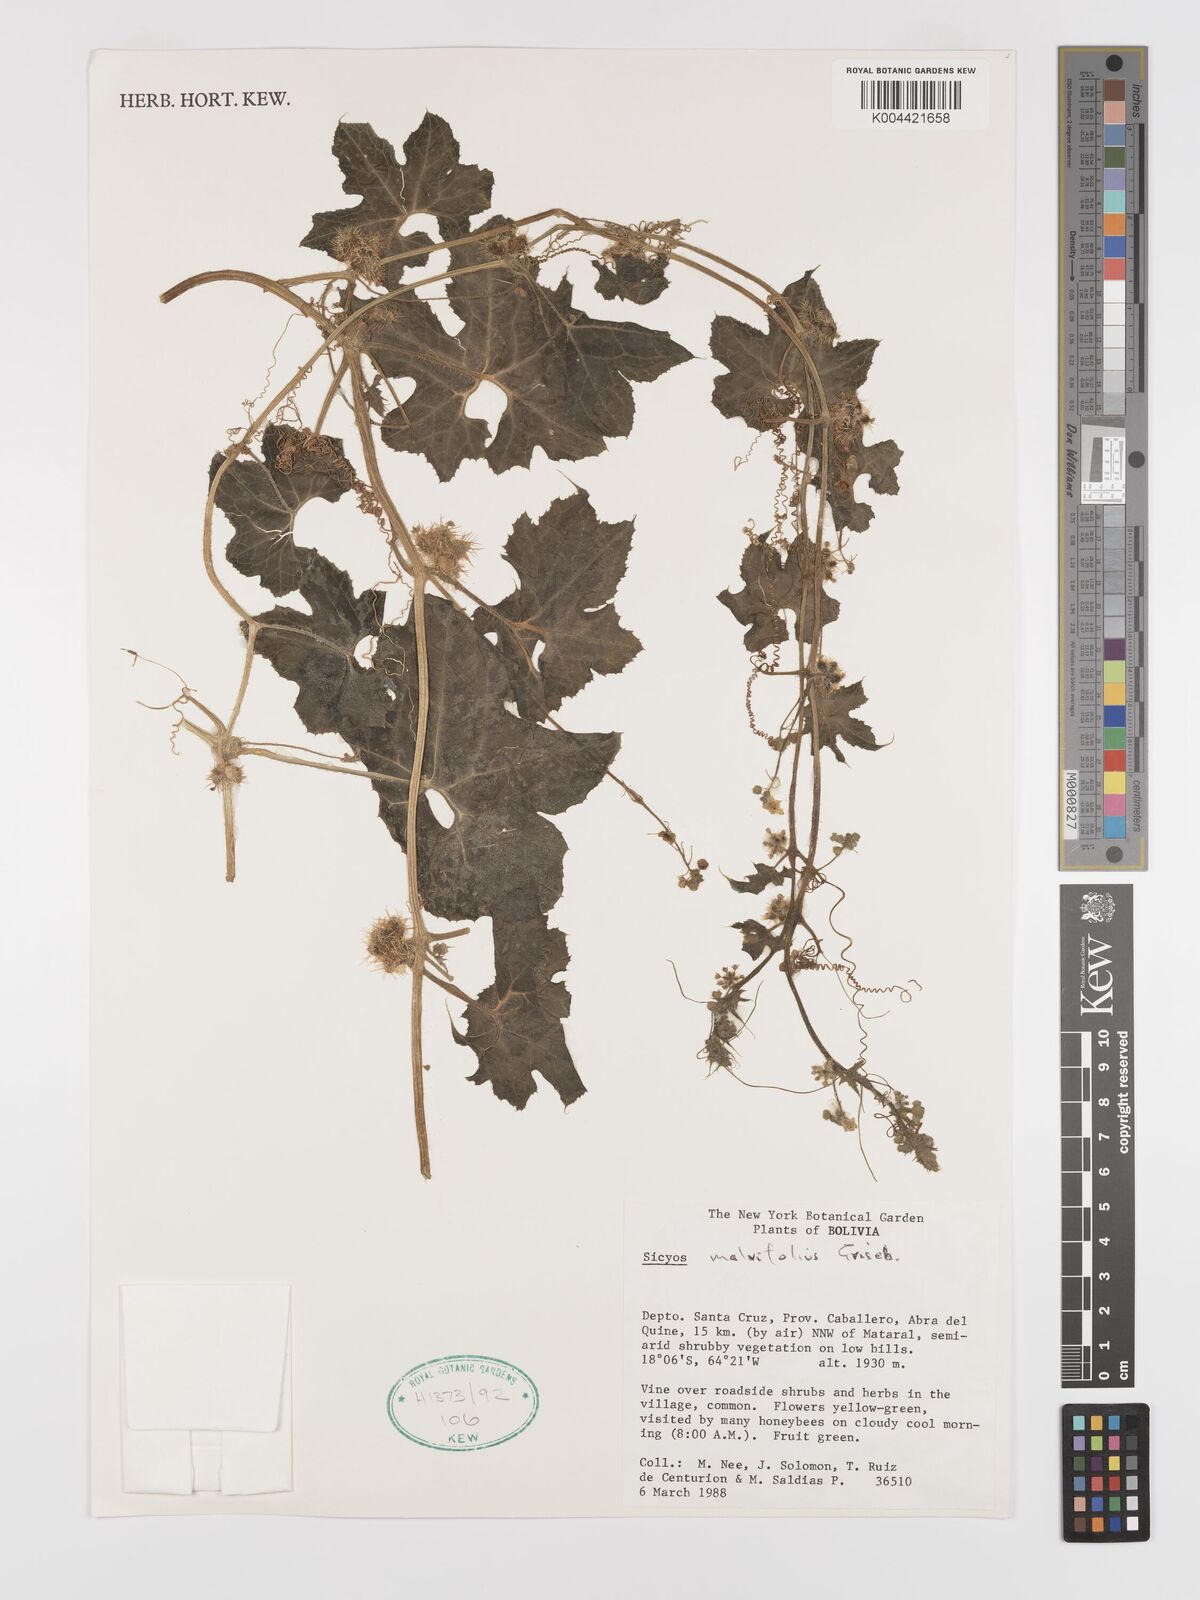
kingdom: Plantae
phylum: Tracheophyta
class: Magnoliopsida
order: Cucurbitales
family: Cucurbitaceae
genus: Sicyos
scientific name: Sicyos malvifolius
